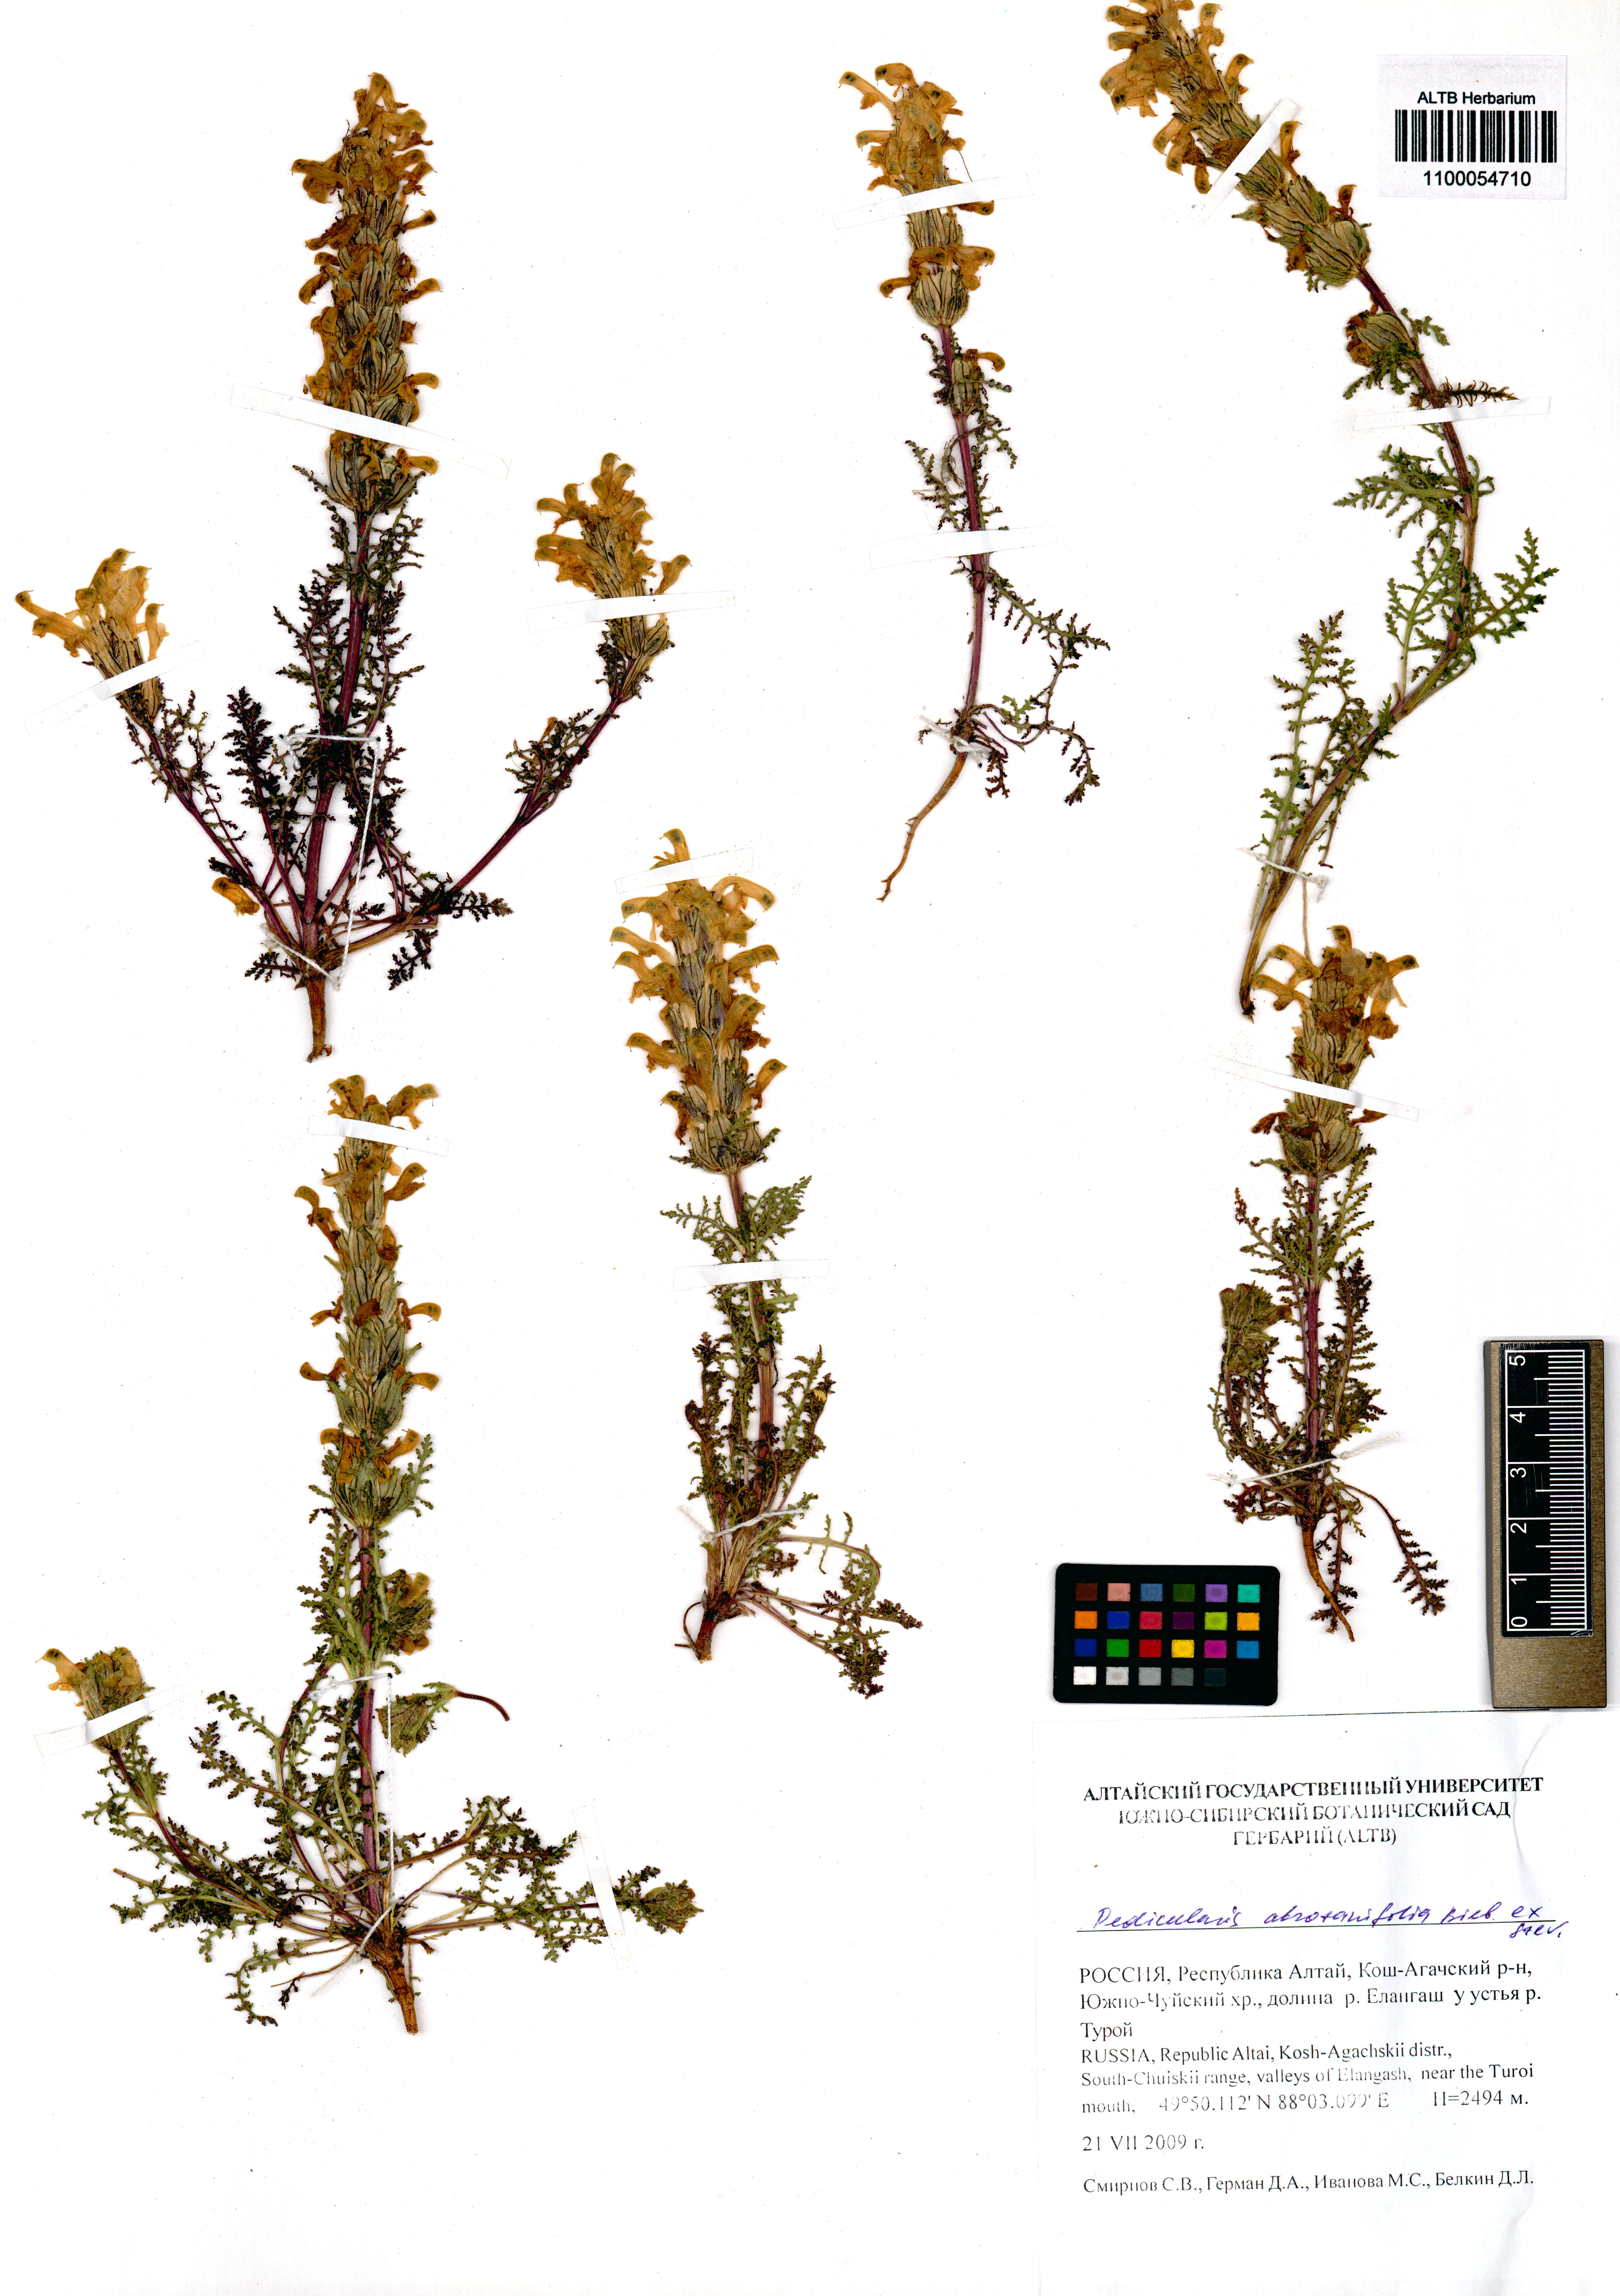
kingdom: Plantae
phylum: Tracheophyta
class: Magnoliopsida
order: Lamiales
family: Orobanchaceae
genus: Pedicularis
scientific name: Pedicularis abrotanifolia
